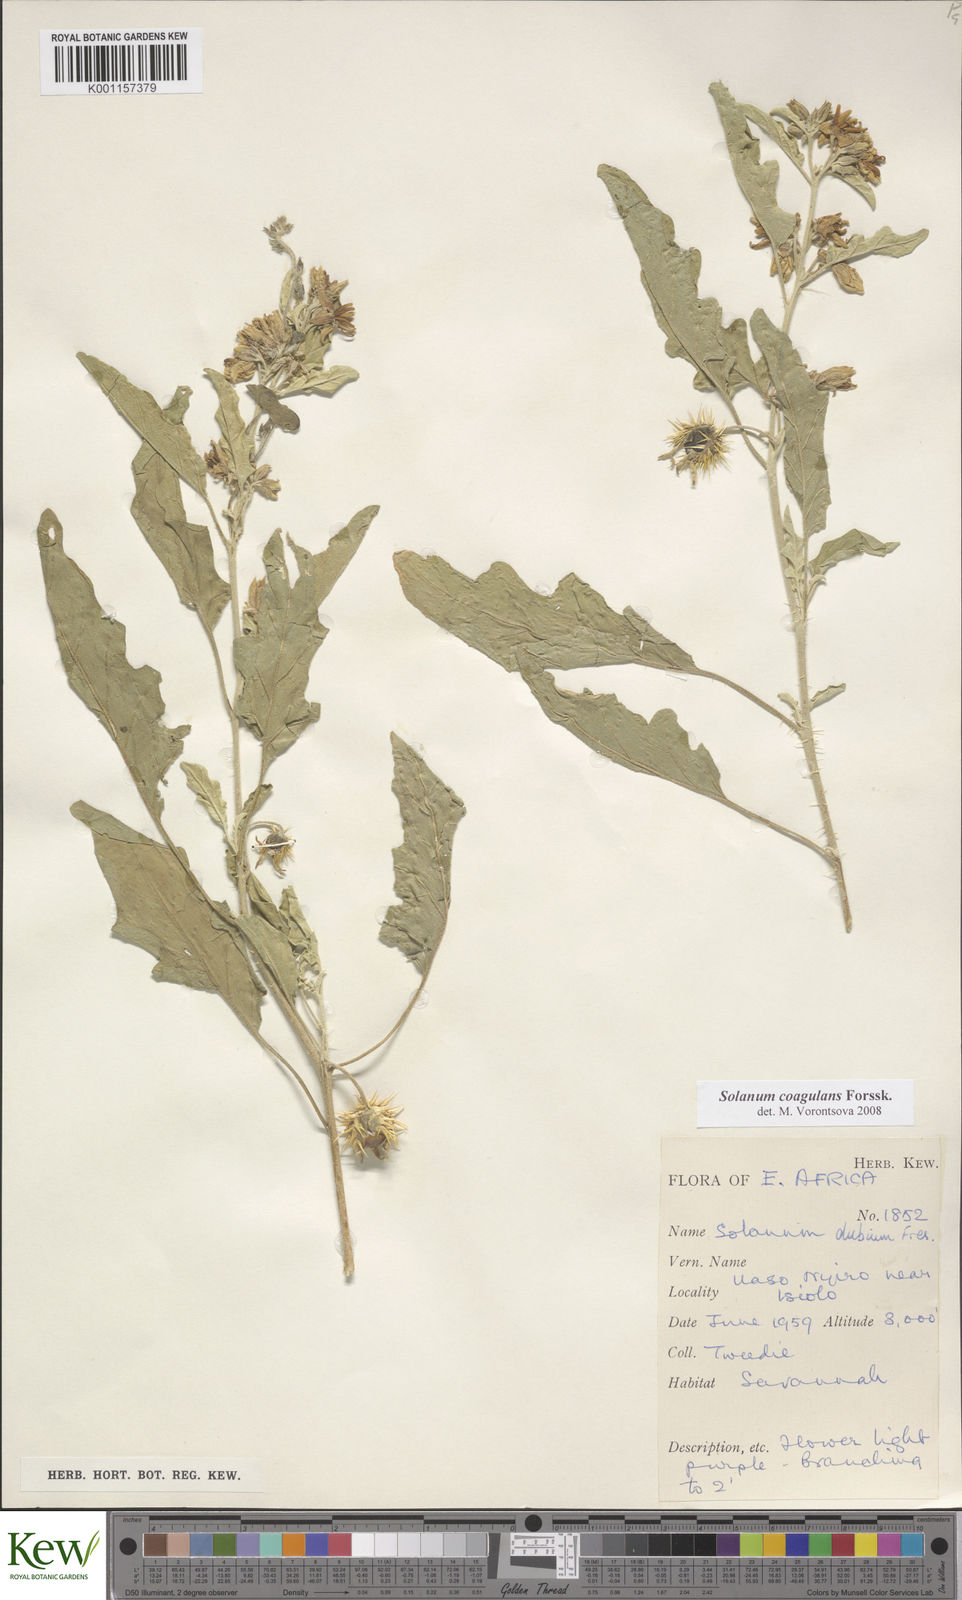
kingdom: Plantae
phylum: Tracheophyta
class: Magnoliopsida
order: Solanales
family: Solanaceae
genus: Solanum
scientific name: Solanum coagulans
